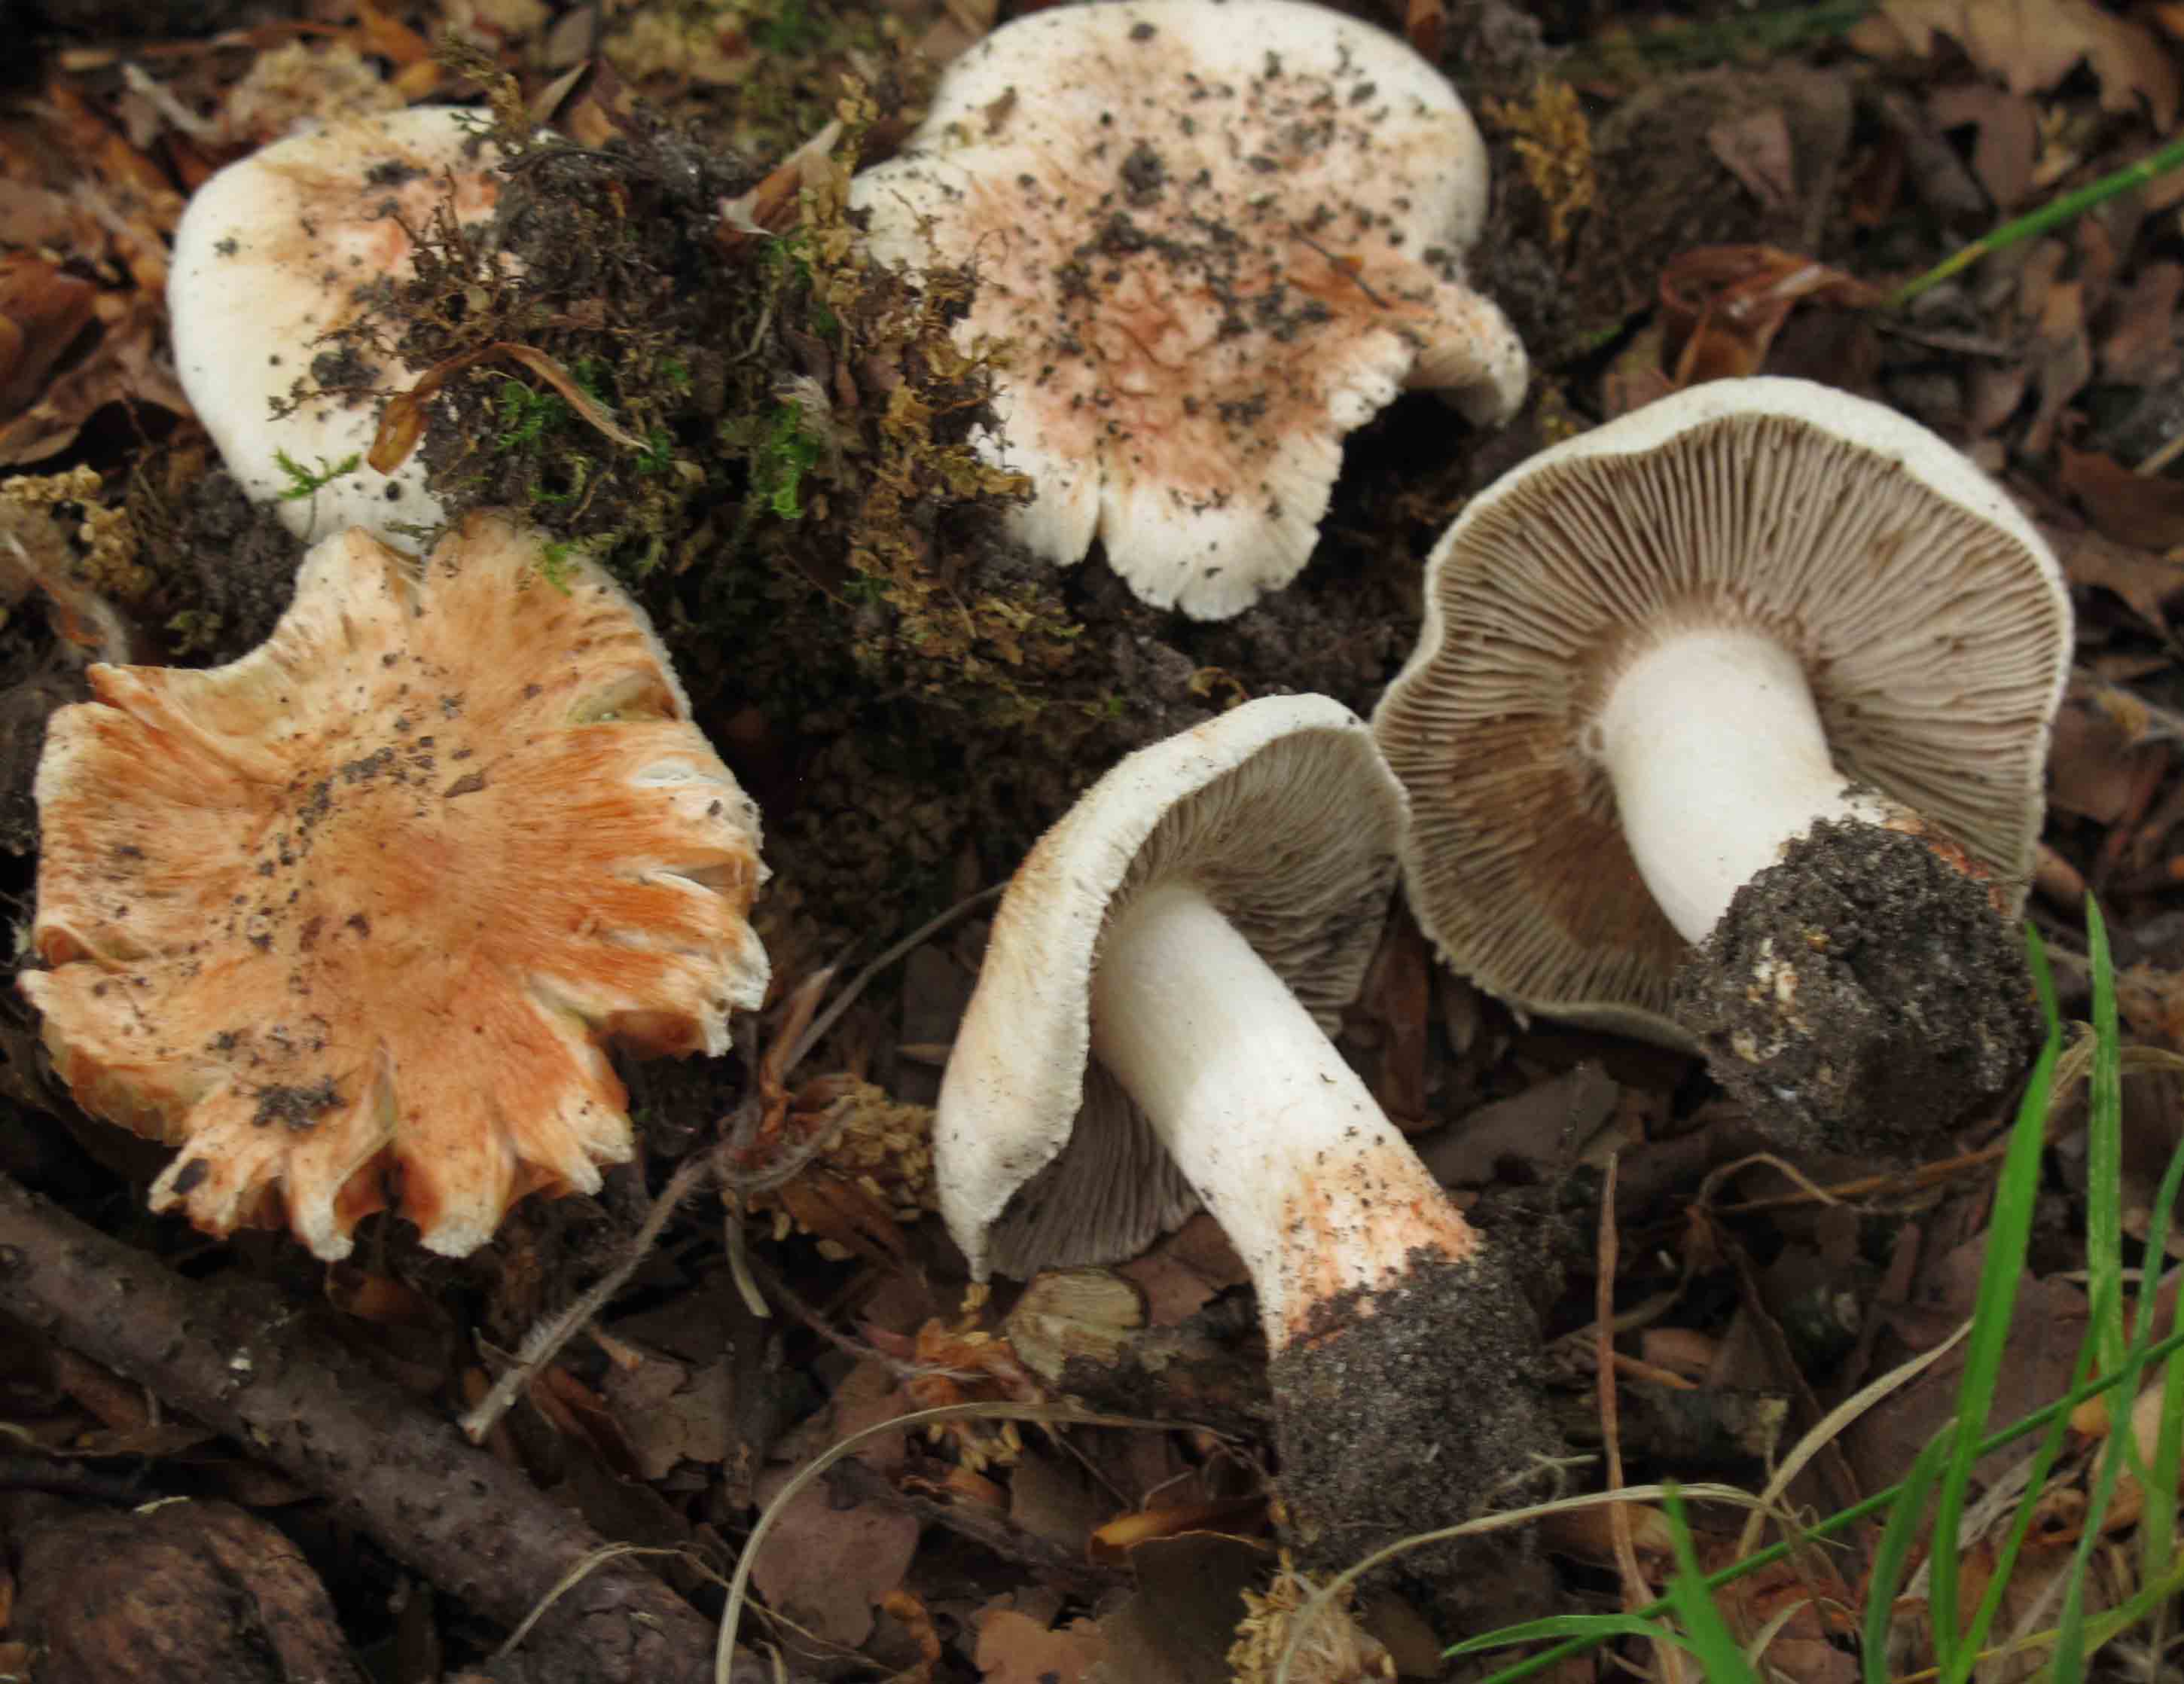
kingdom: Fungi
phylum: Basidiomycota
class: Agaricomycetes
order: Agaricales
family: Inocybaceae
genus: Inosperma
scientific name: Inosperma erubescens
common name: giftig trævlhat
